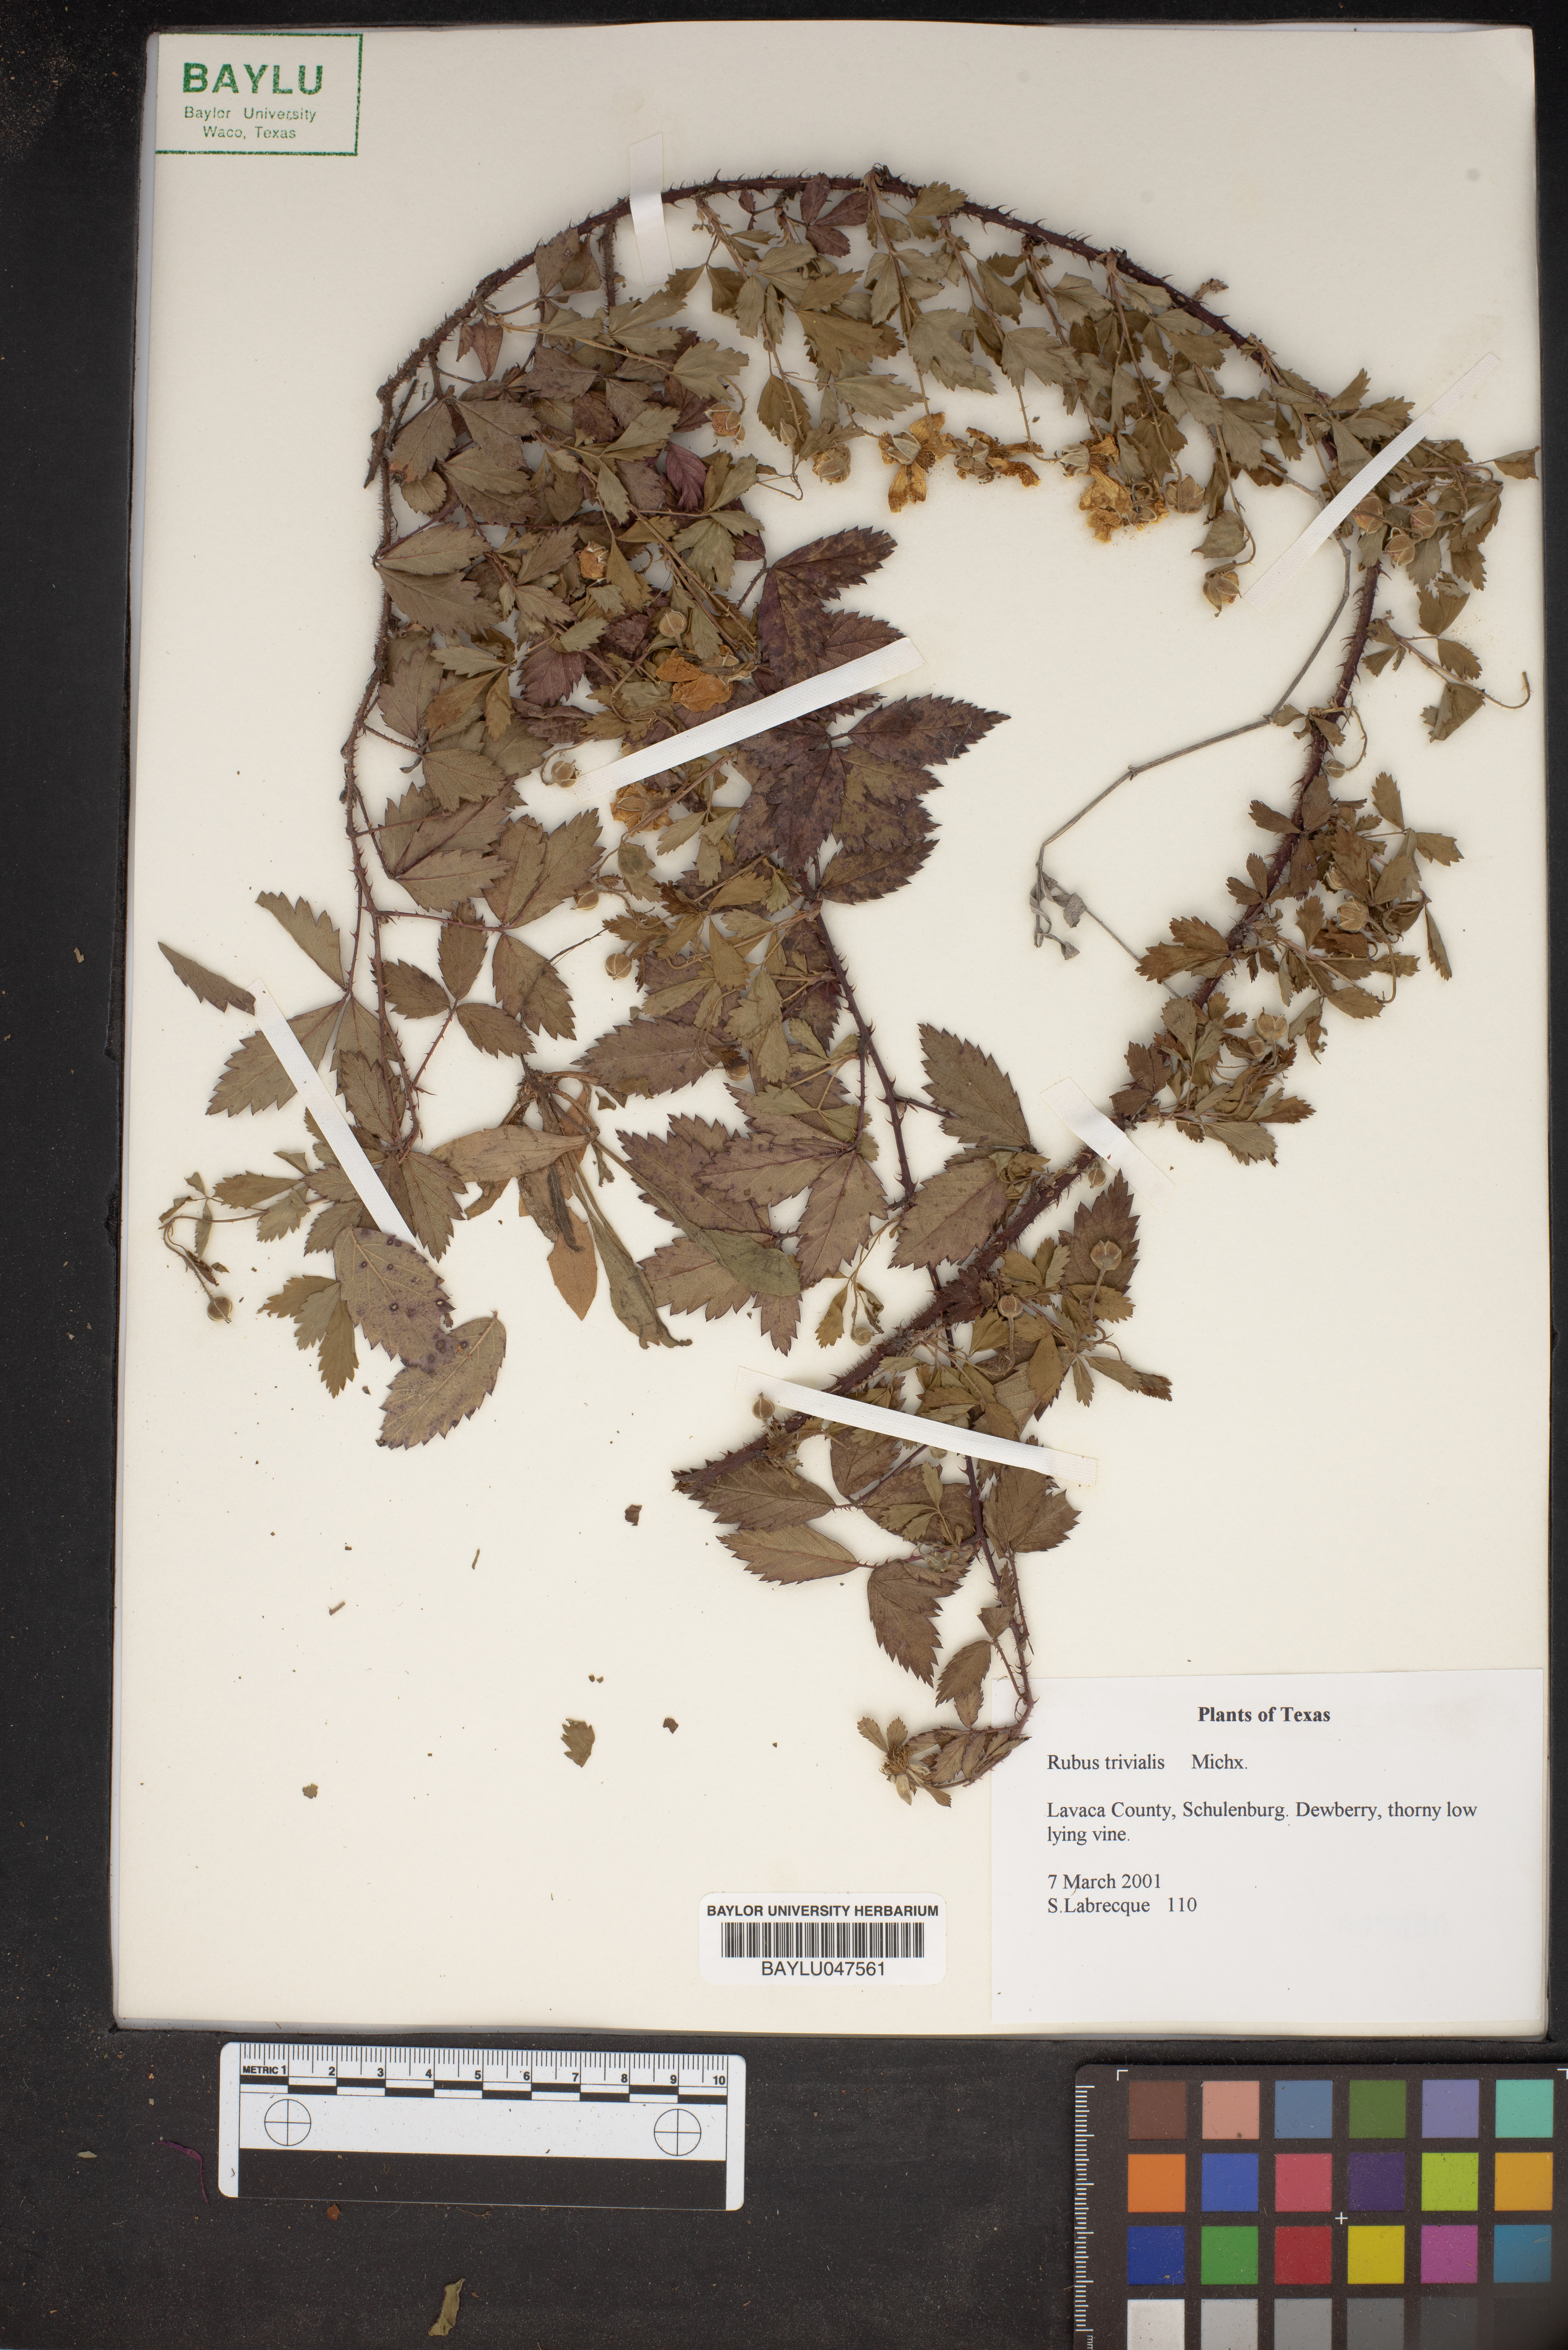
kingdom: Plantae
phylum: Tracheophyta
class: Magnoliopsida
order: Rosales
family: Rosaceae
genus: Rubus
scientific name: Rubus trivialis
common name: Southern dewberry
